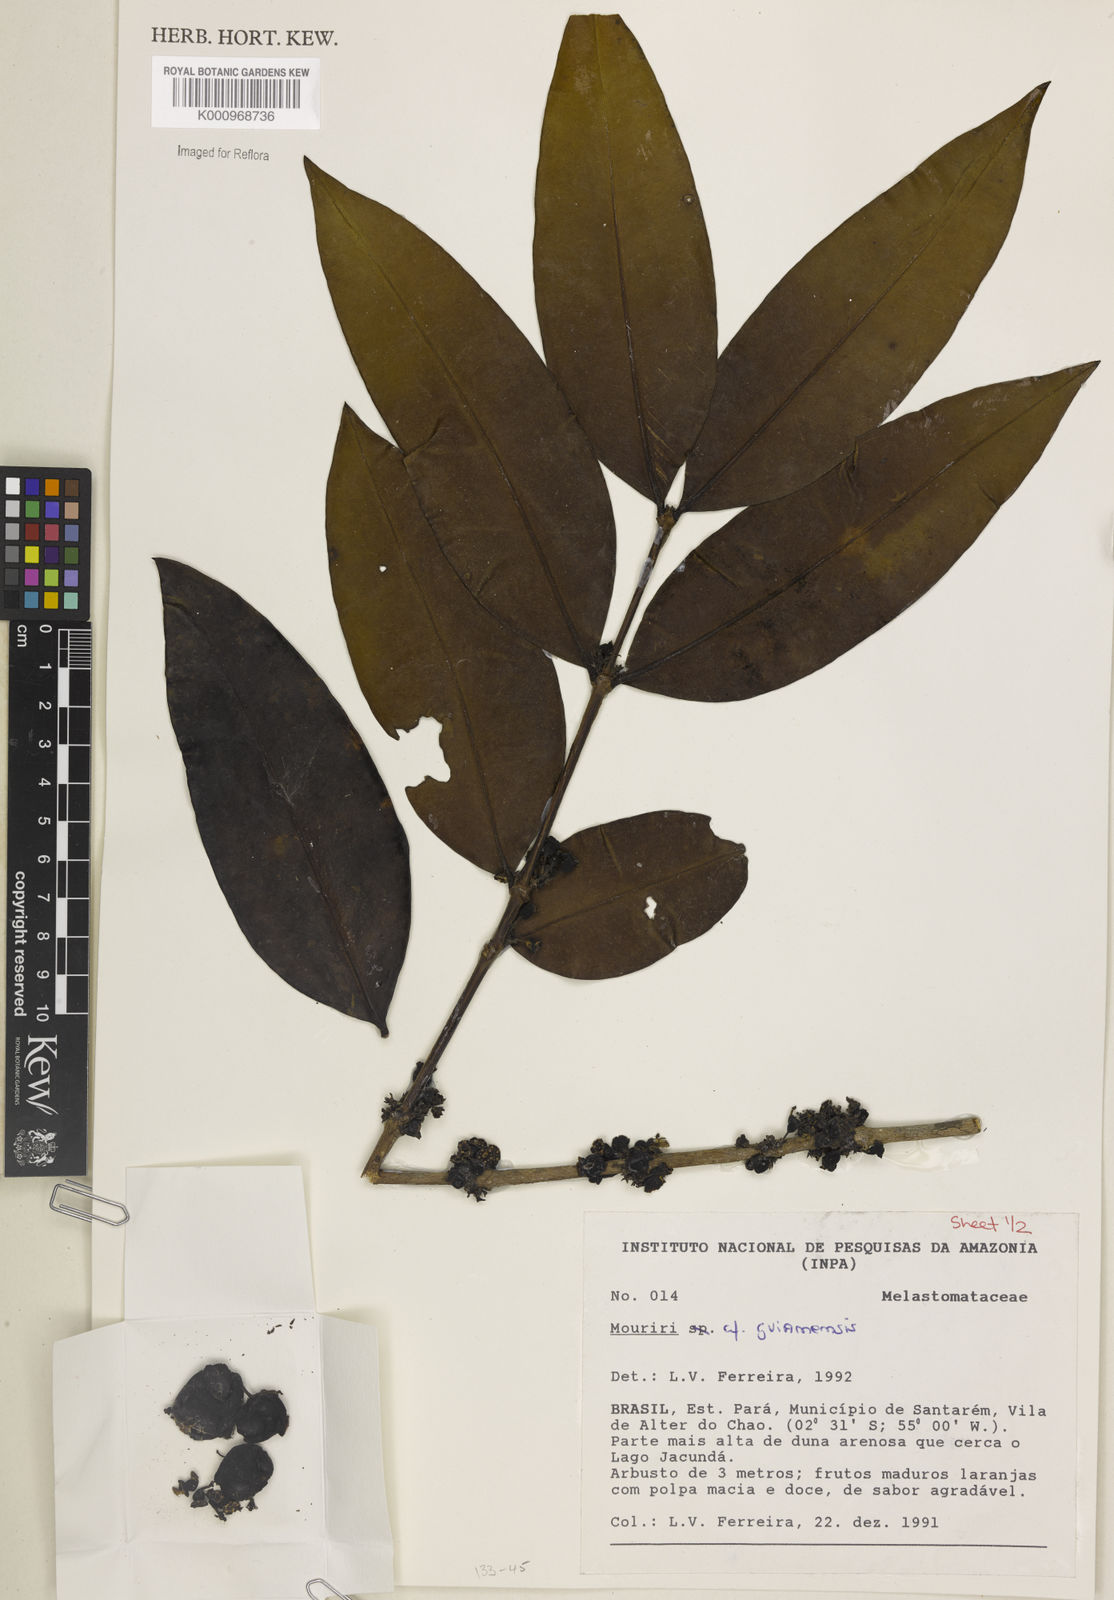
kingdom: Plantae
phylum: Tracheophyta
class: Magnoliopsida
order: Myrtales
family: Melastomataceae
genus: Mouriri
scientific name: Mouriri guianensis
